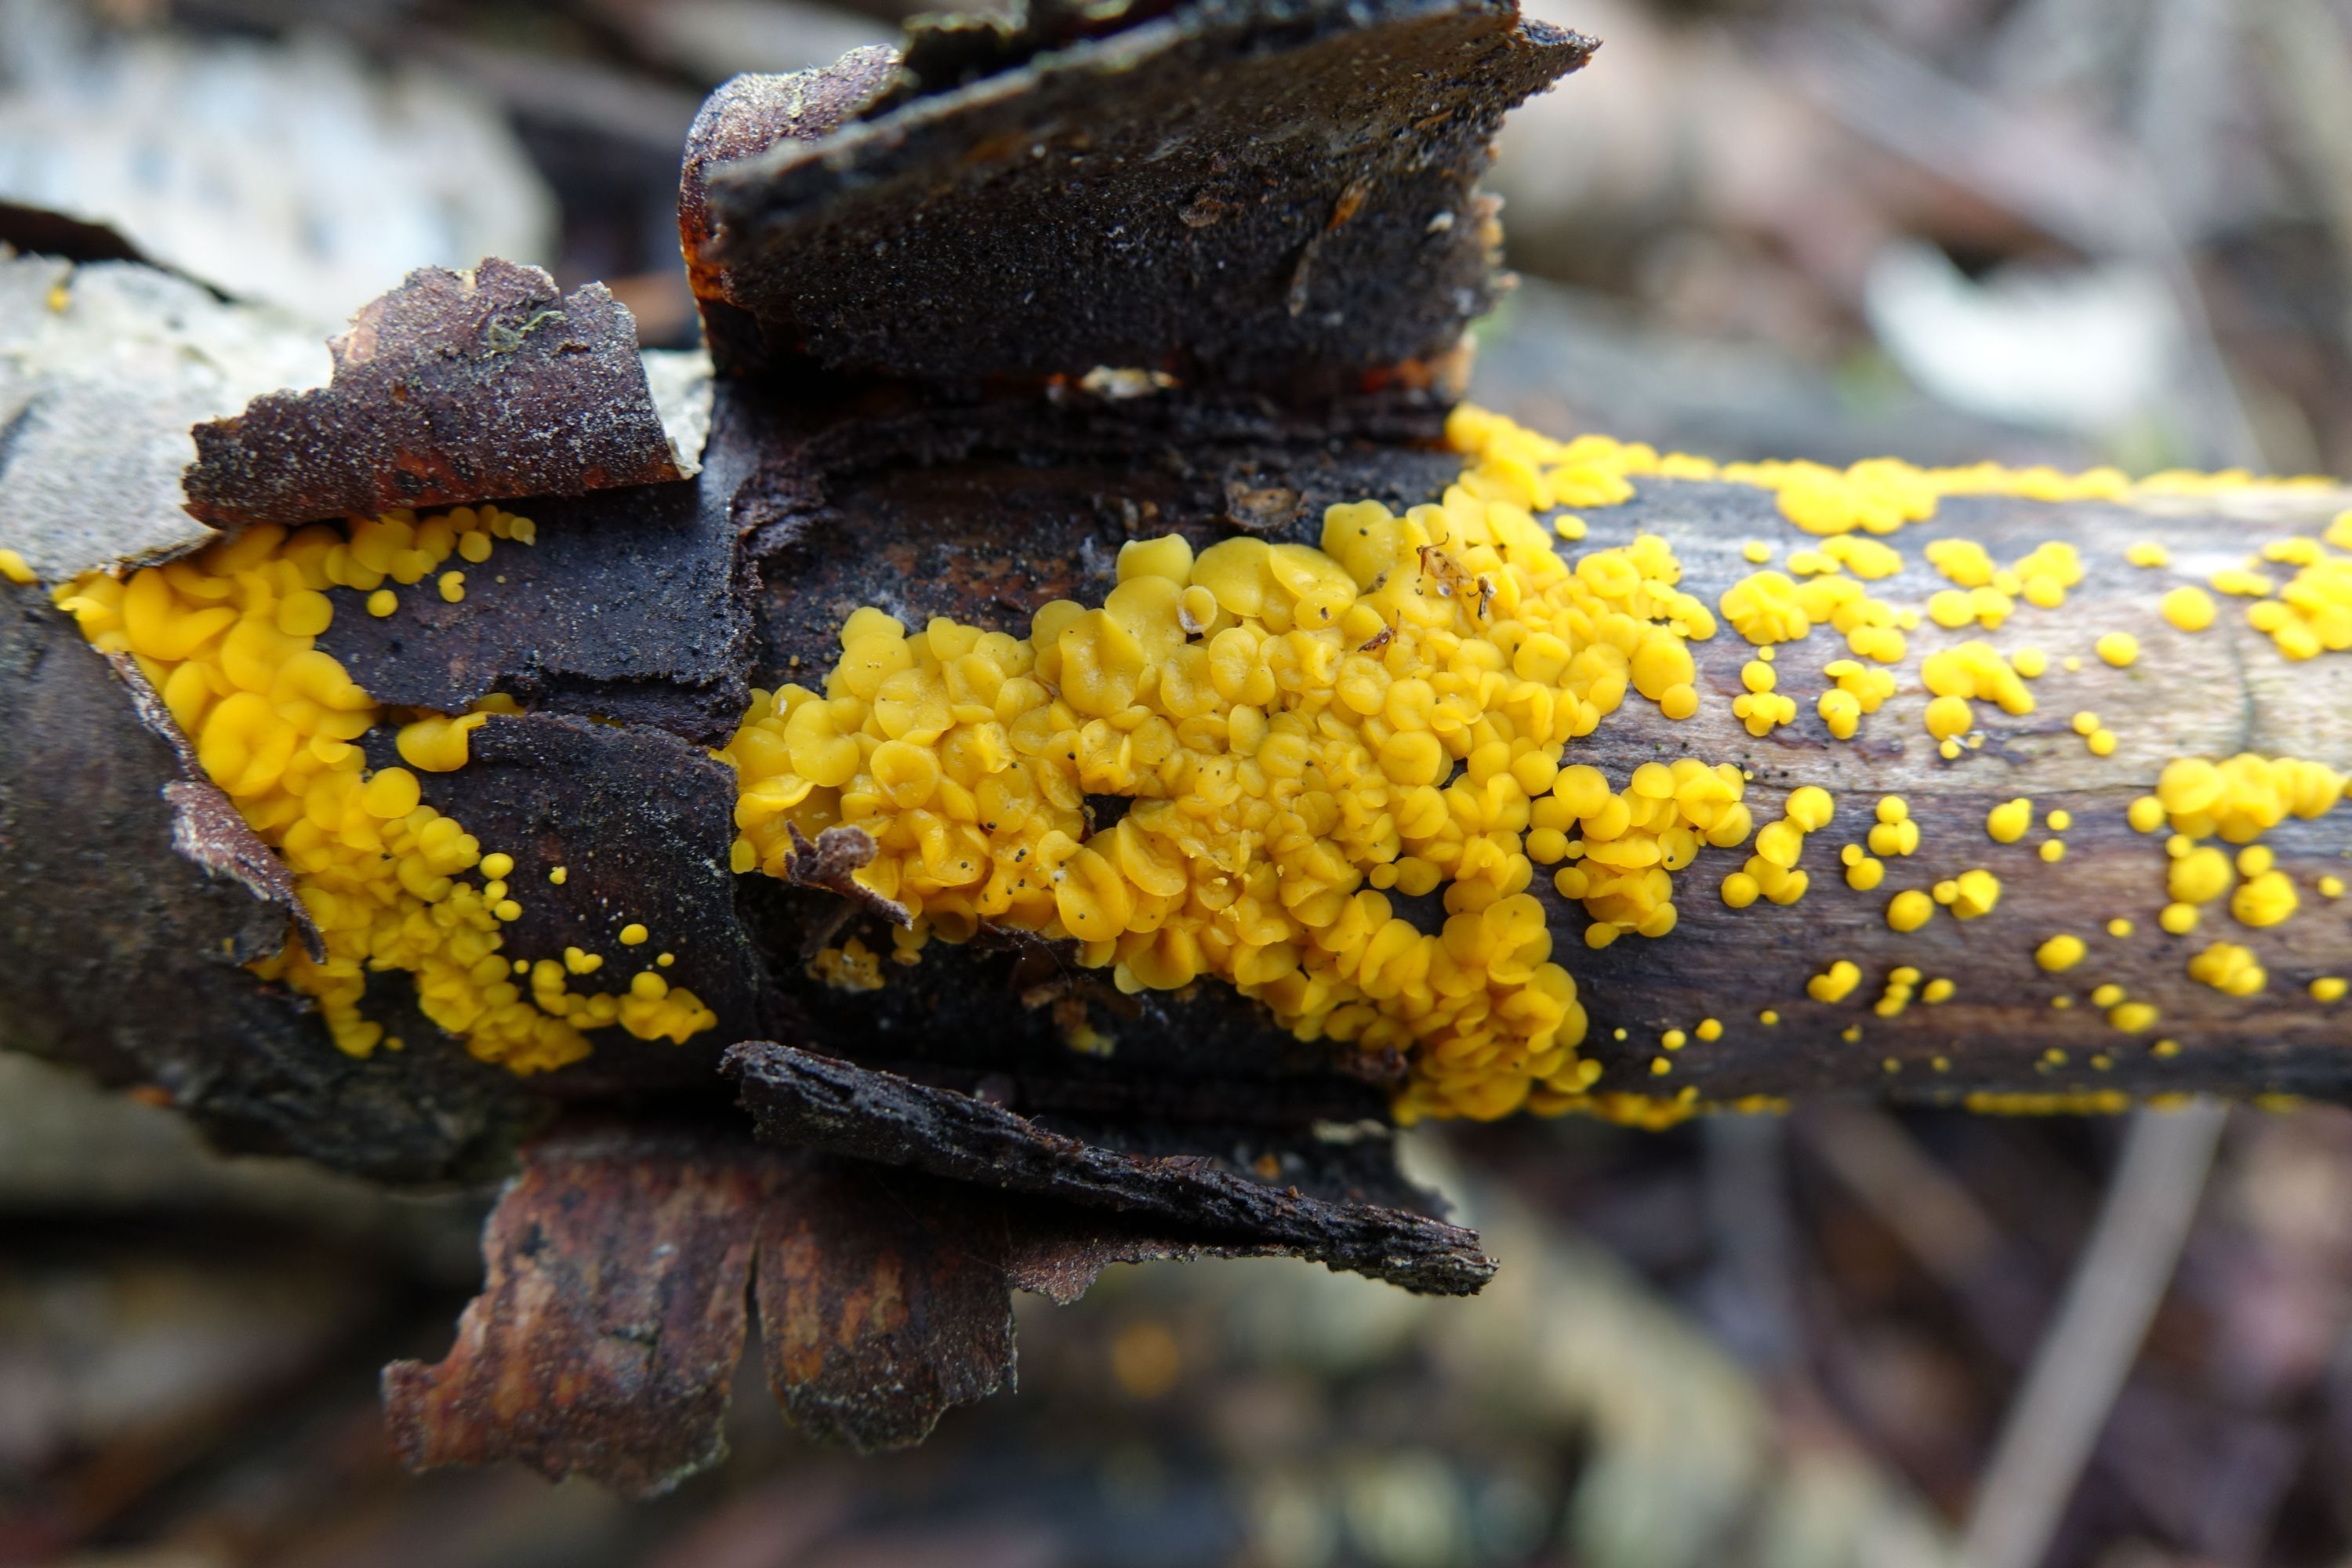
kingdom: Fungi
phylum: Ascomycota
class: Leotiomycetes
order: Helotiales
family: Pezizellaceae
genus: Calycina
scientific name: Calycina citrina
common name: Yellow fairy cups
